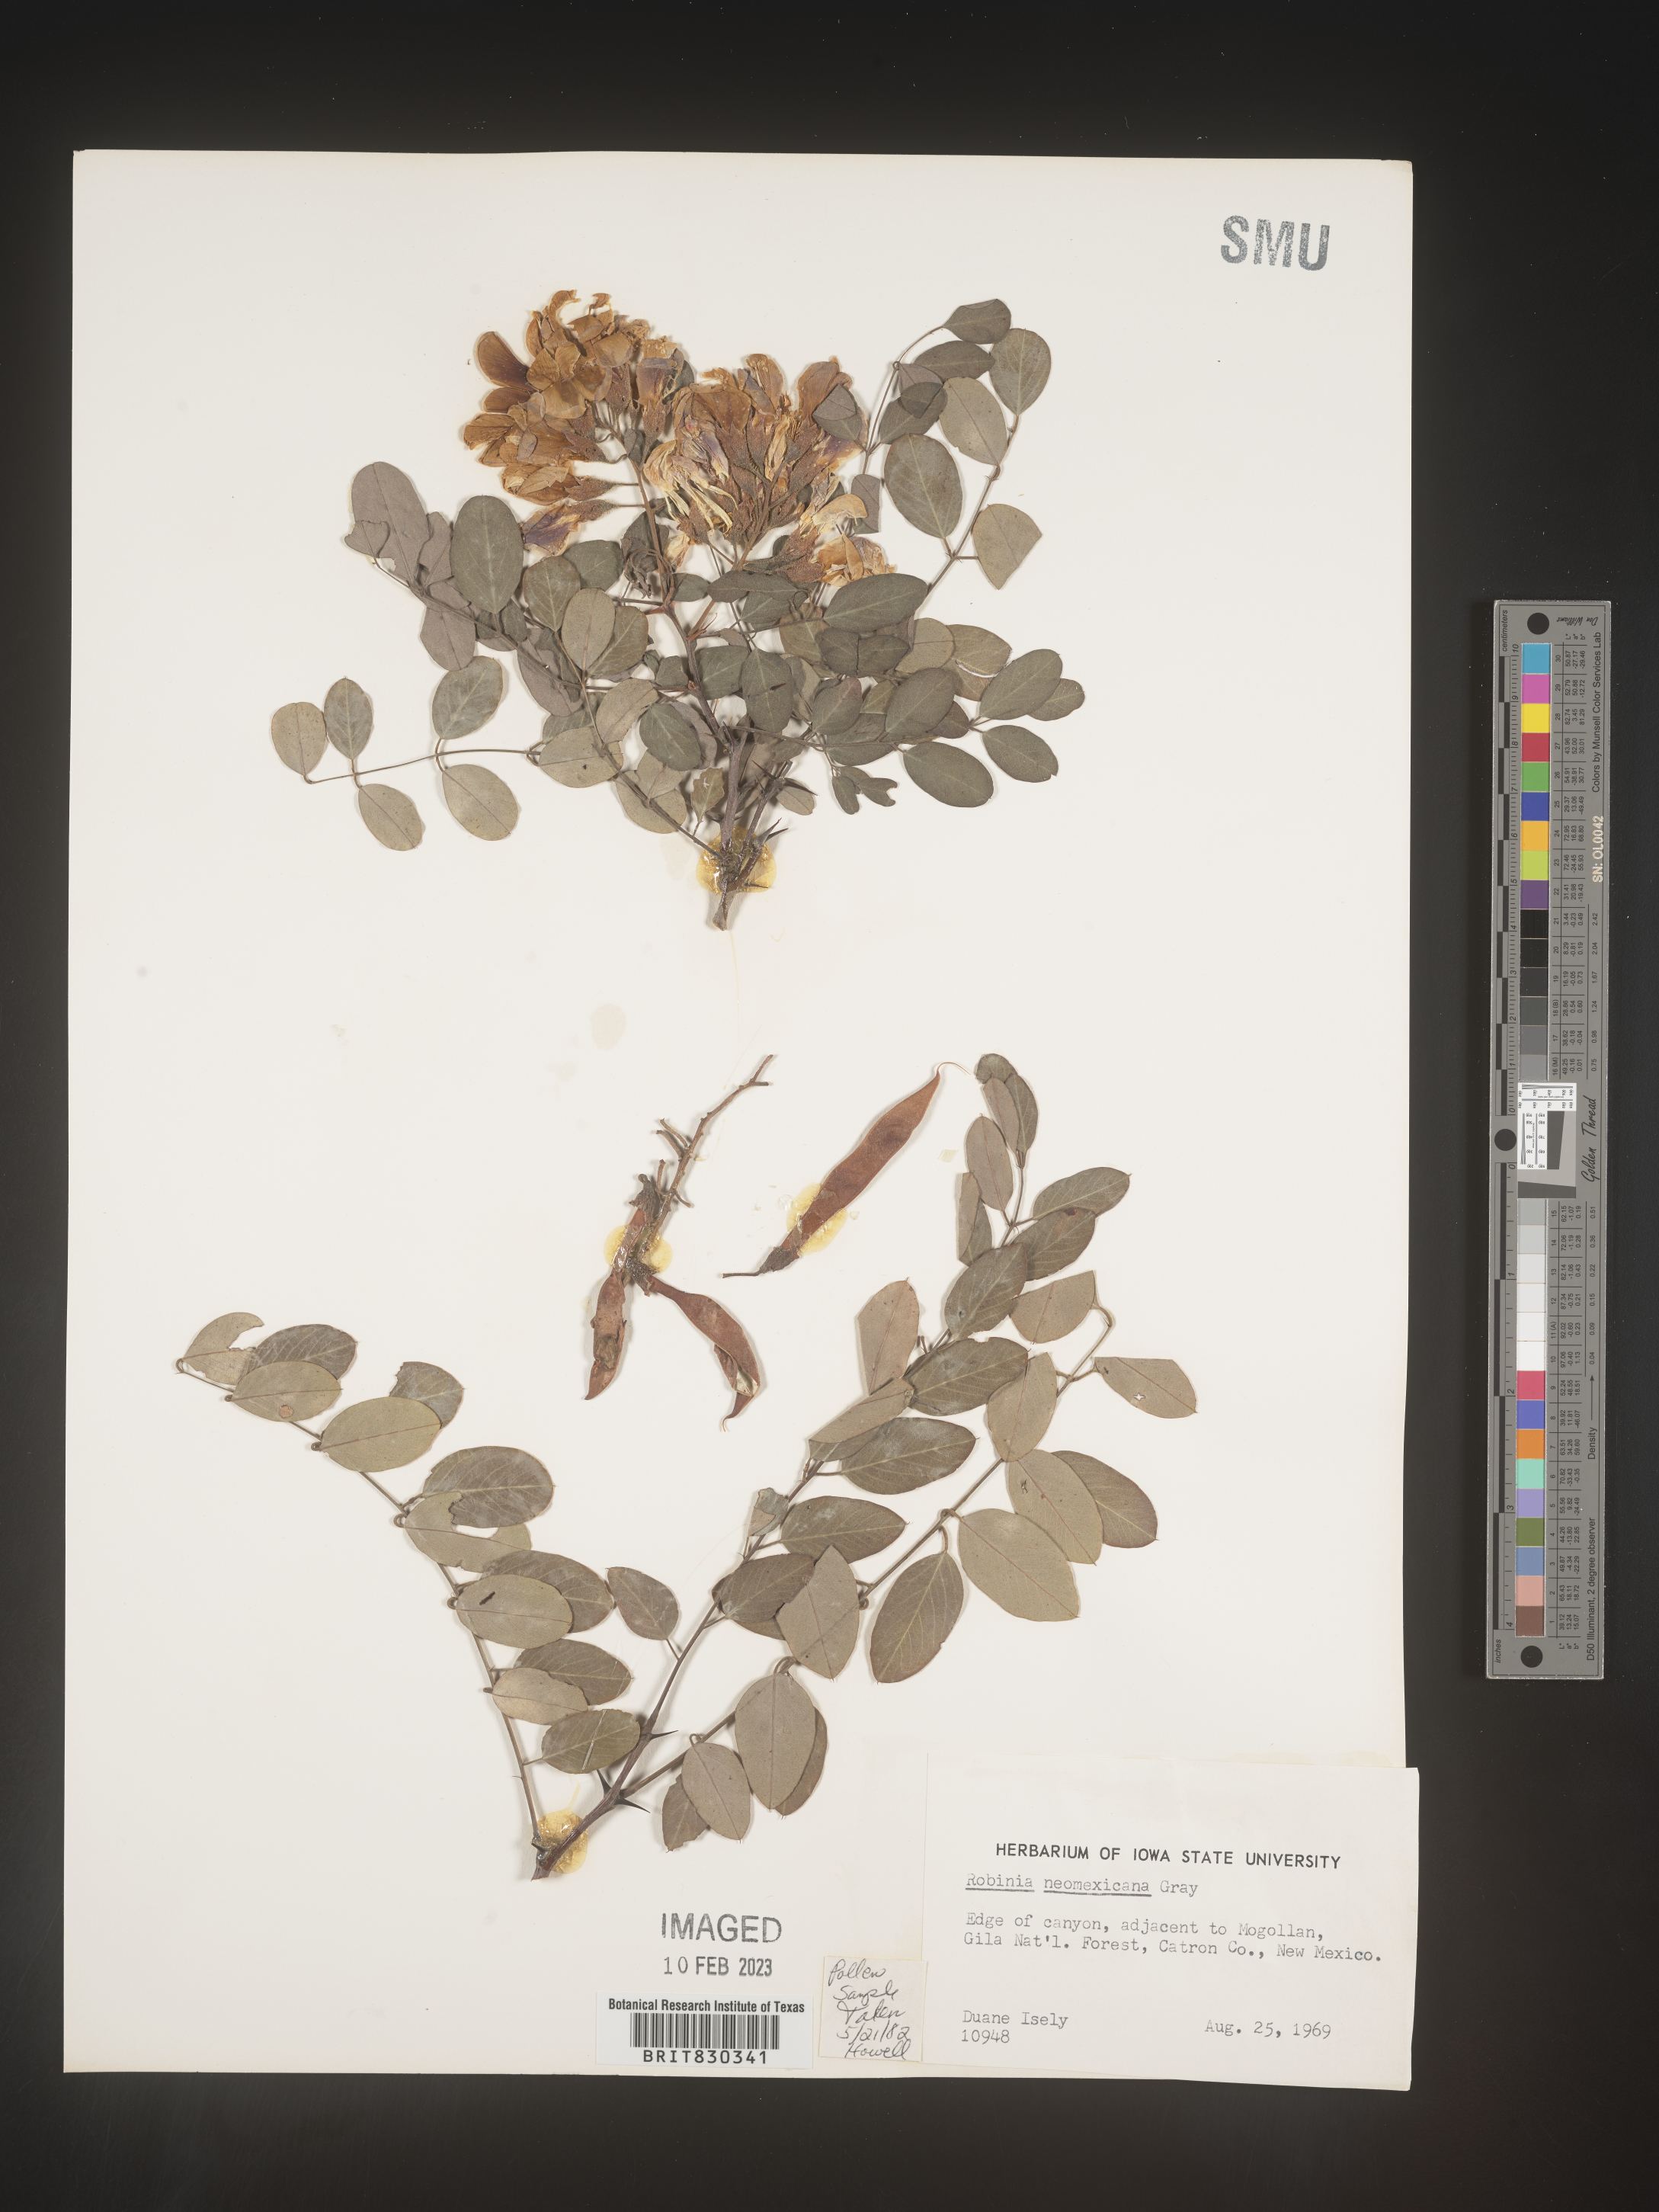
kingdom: Plantae
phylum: Tracheophyta
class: Magnoliopsida
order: Fabales
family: Fabaceae
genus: Robinia
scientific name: Robinia neomexicana
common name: New mexico locust
